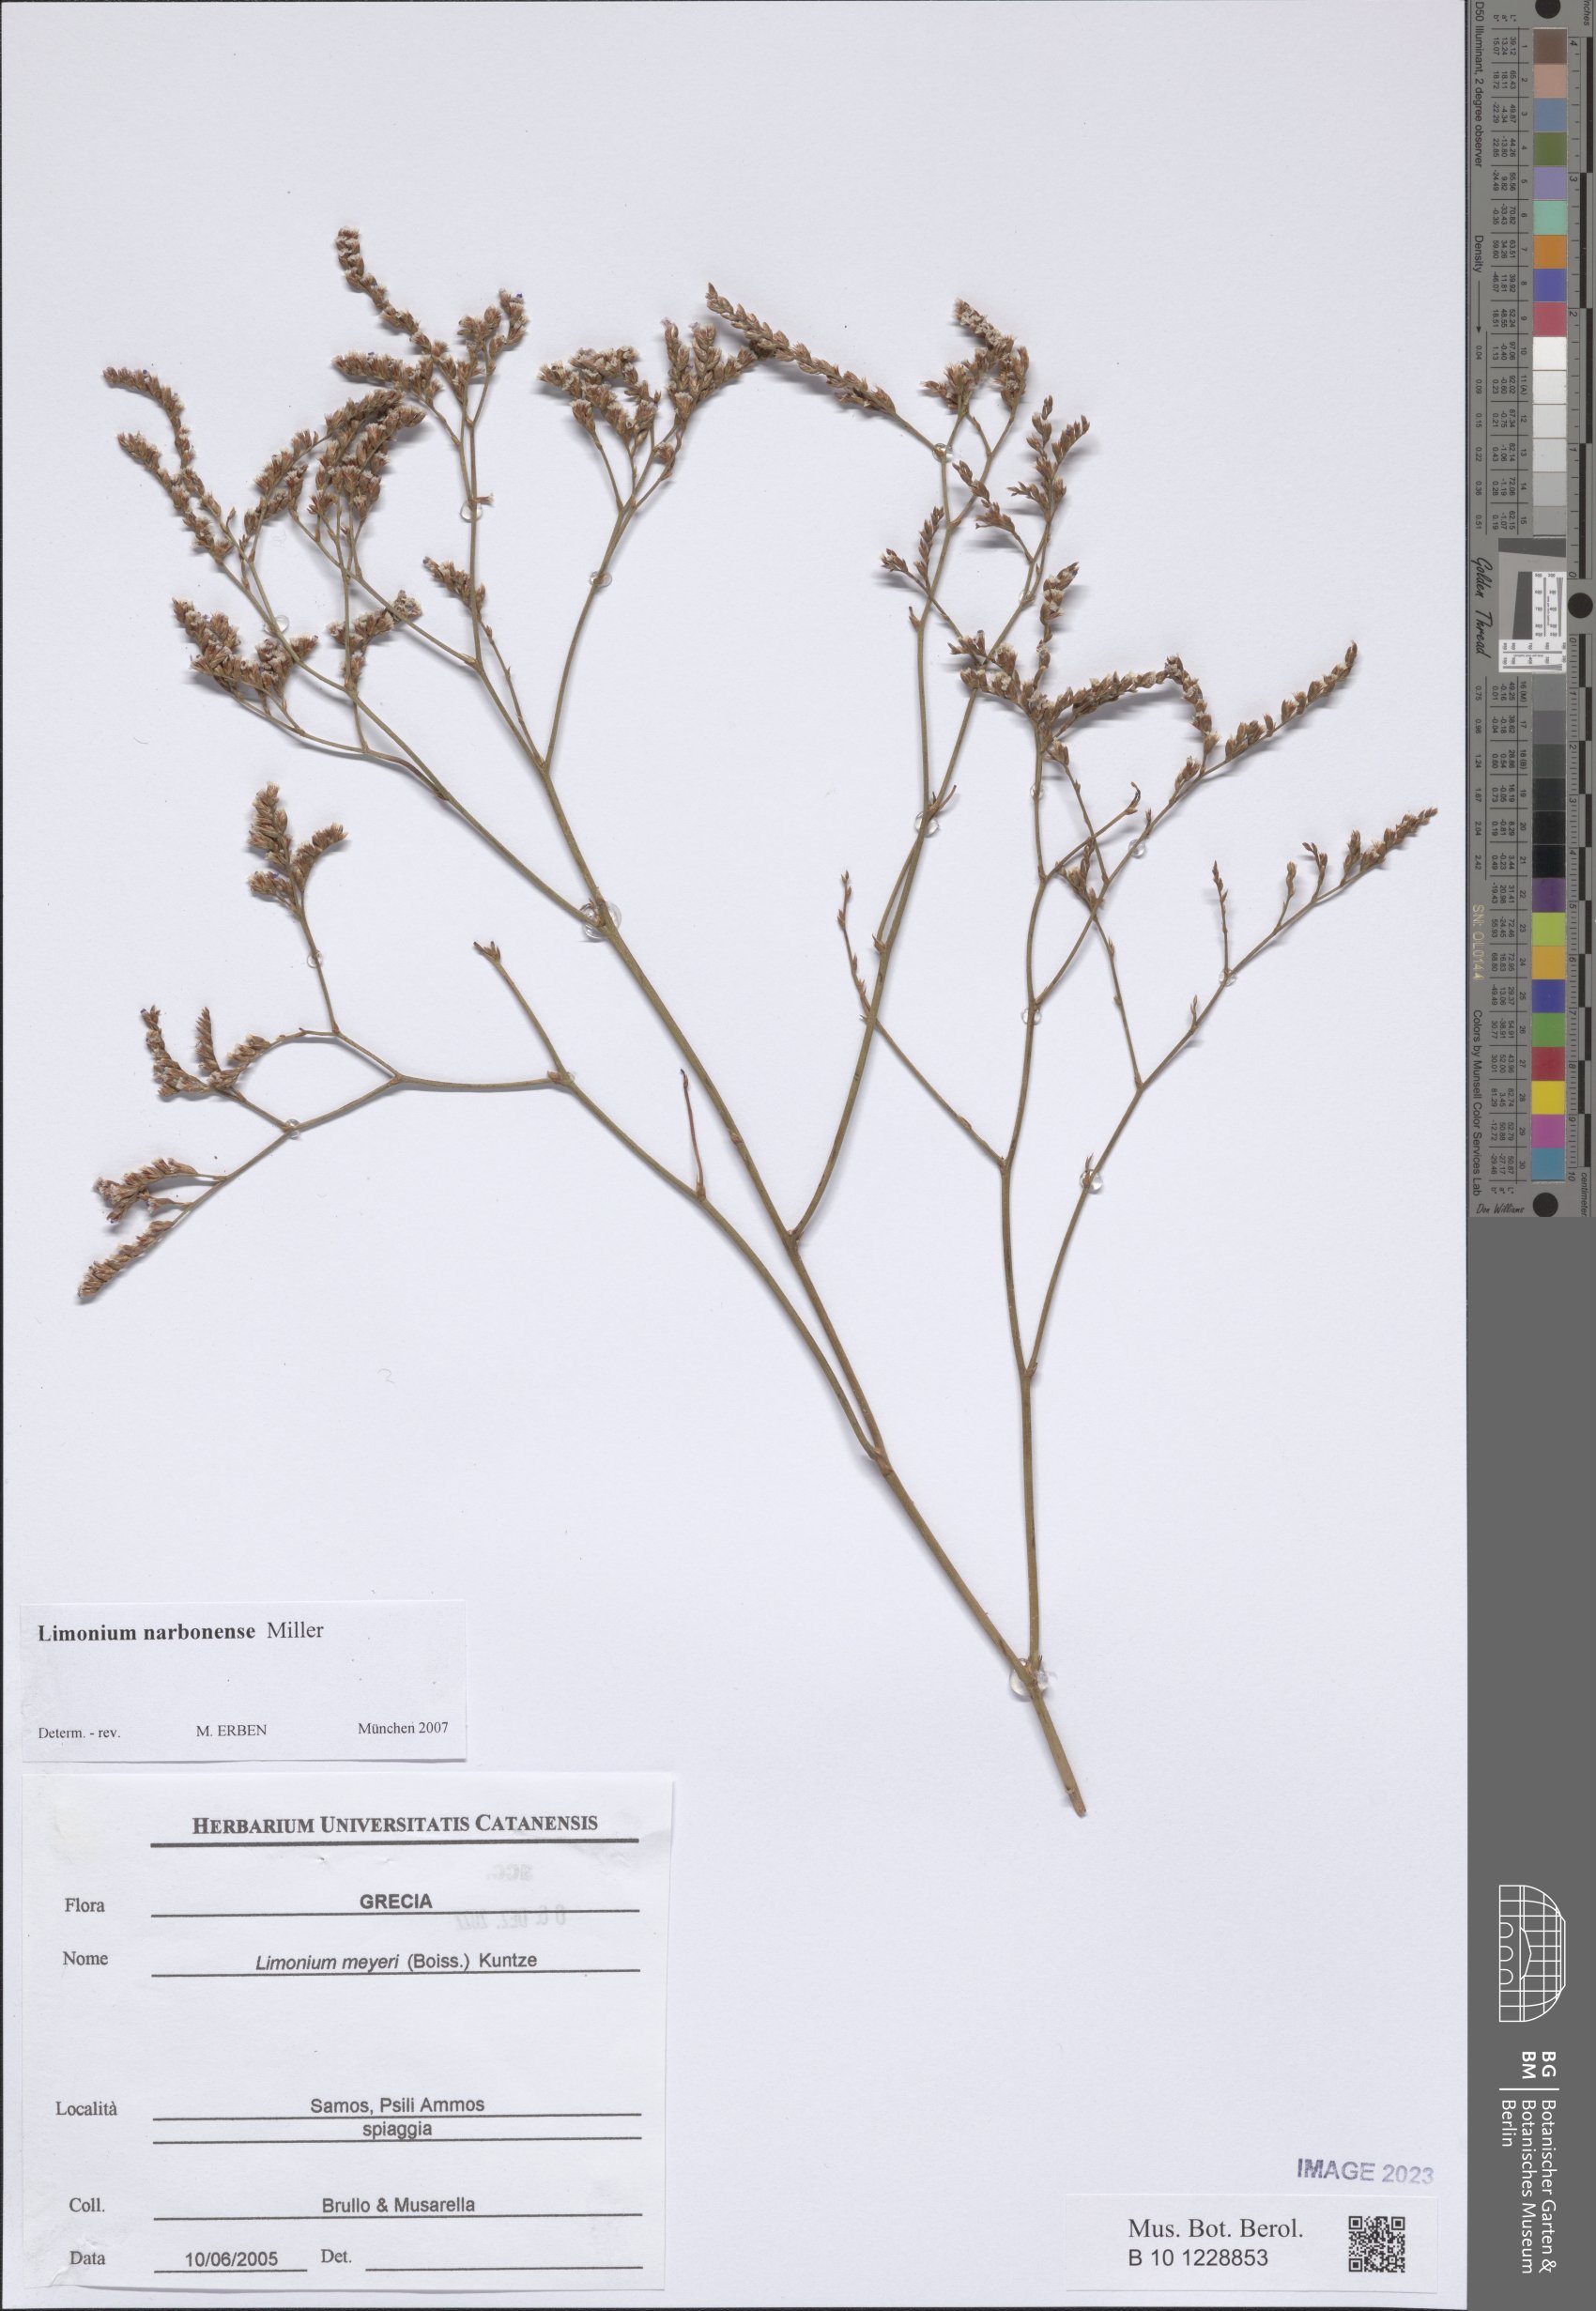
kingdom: Plantae
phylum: Tracheophyta
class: Magnoliopsida
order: Caryophyllales
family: Plumbaginaceae
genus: Limonium
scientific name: Limonium narbonense
